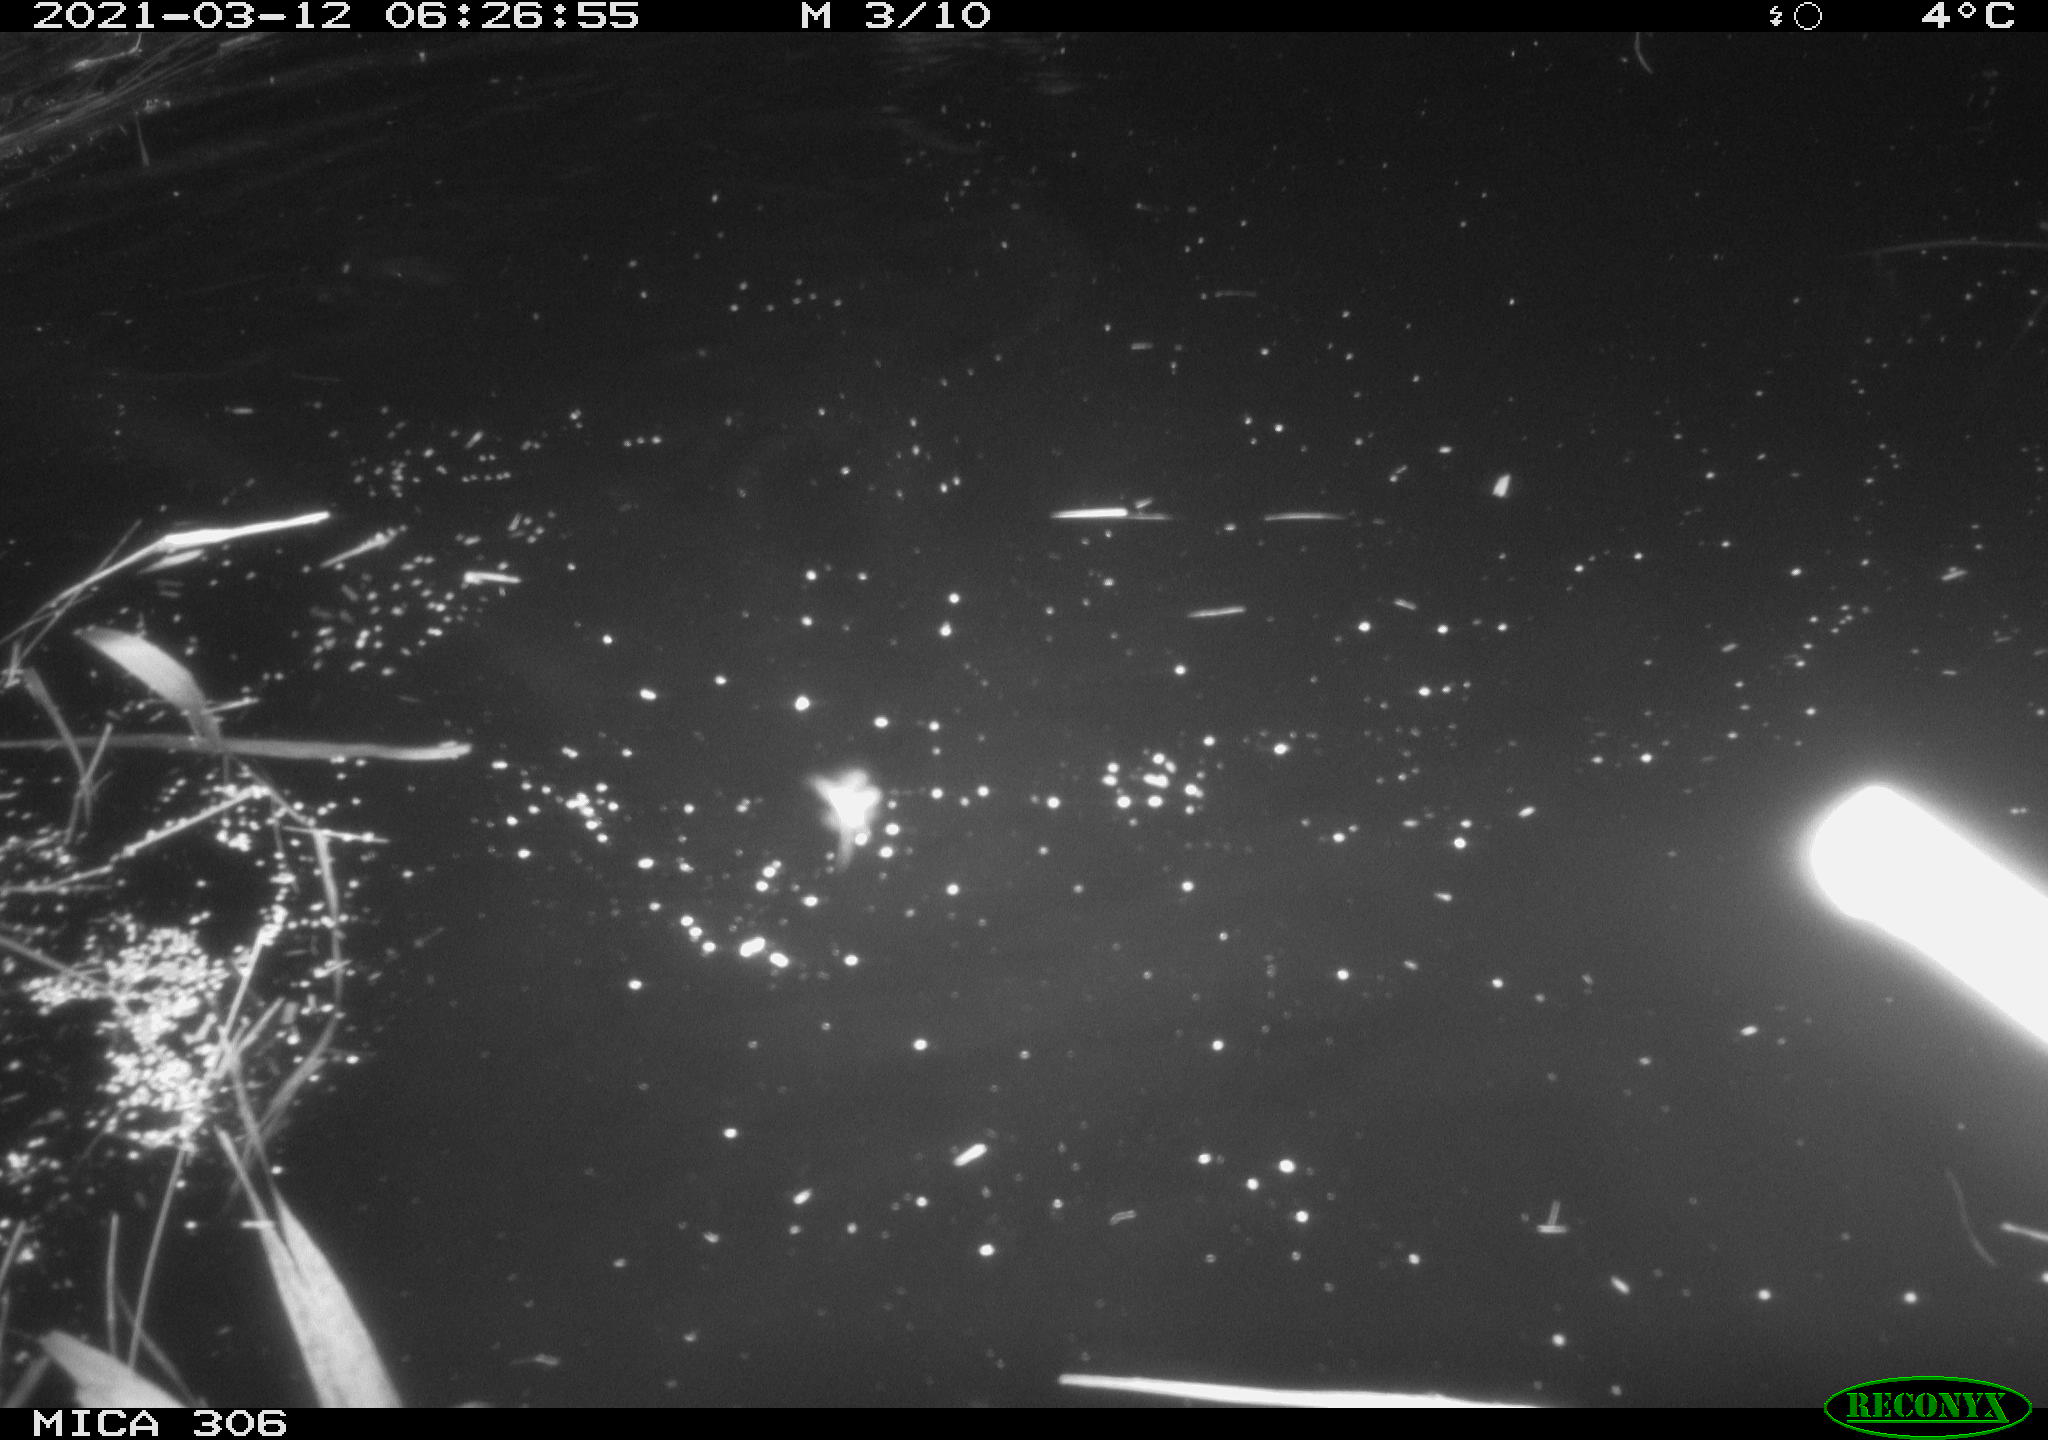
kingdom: Animalia
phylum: Chordata
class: Aves
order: Anseriformes
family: Anatidae
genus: Anas
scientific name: Anas platyrhynchos
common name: Mallard
